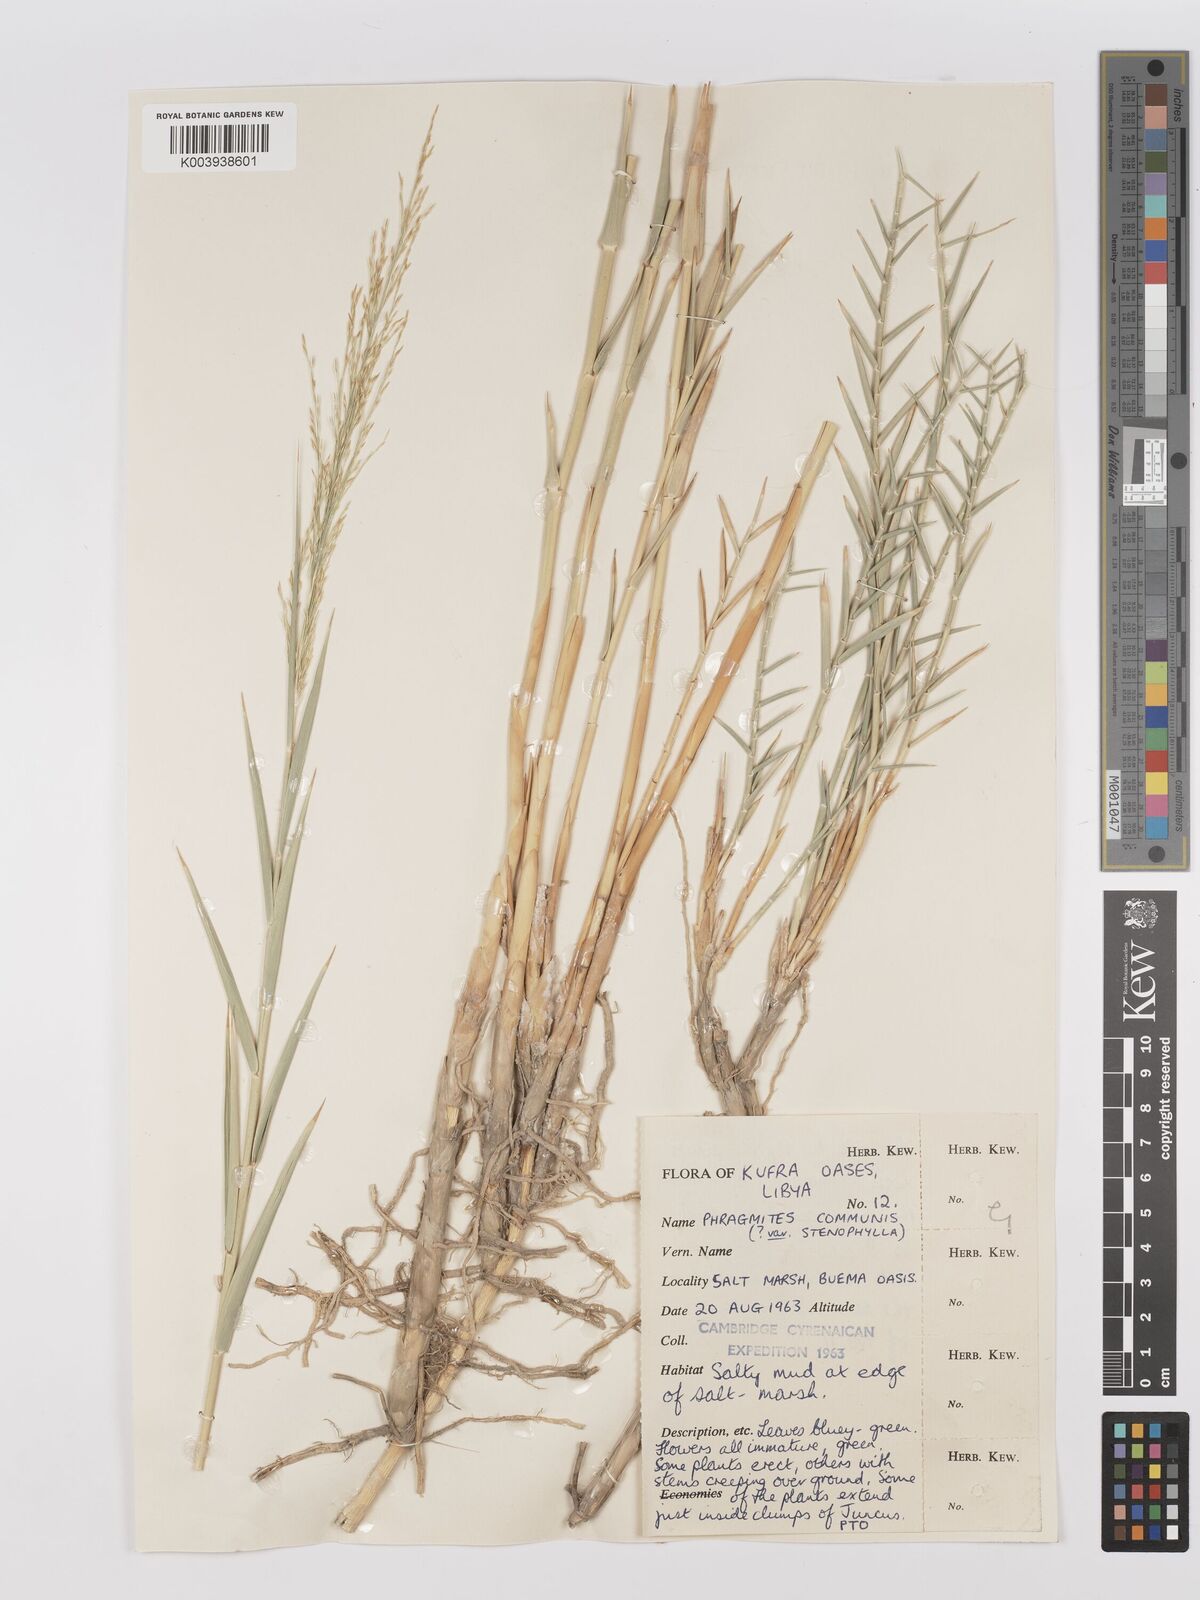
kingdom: Plantae
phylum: Tracheophyta
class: Liliopsida
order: Poales
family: Poaceae
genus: Phragmites
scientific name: Phragmites australis
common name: Common reed
